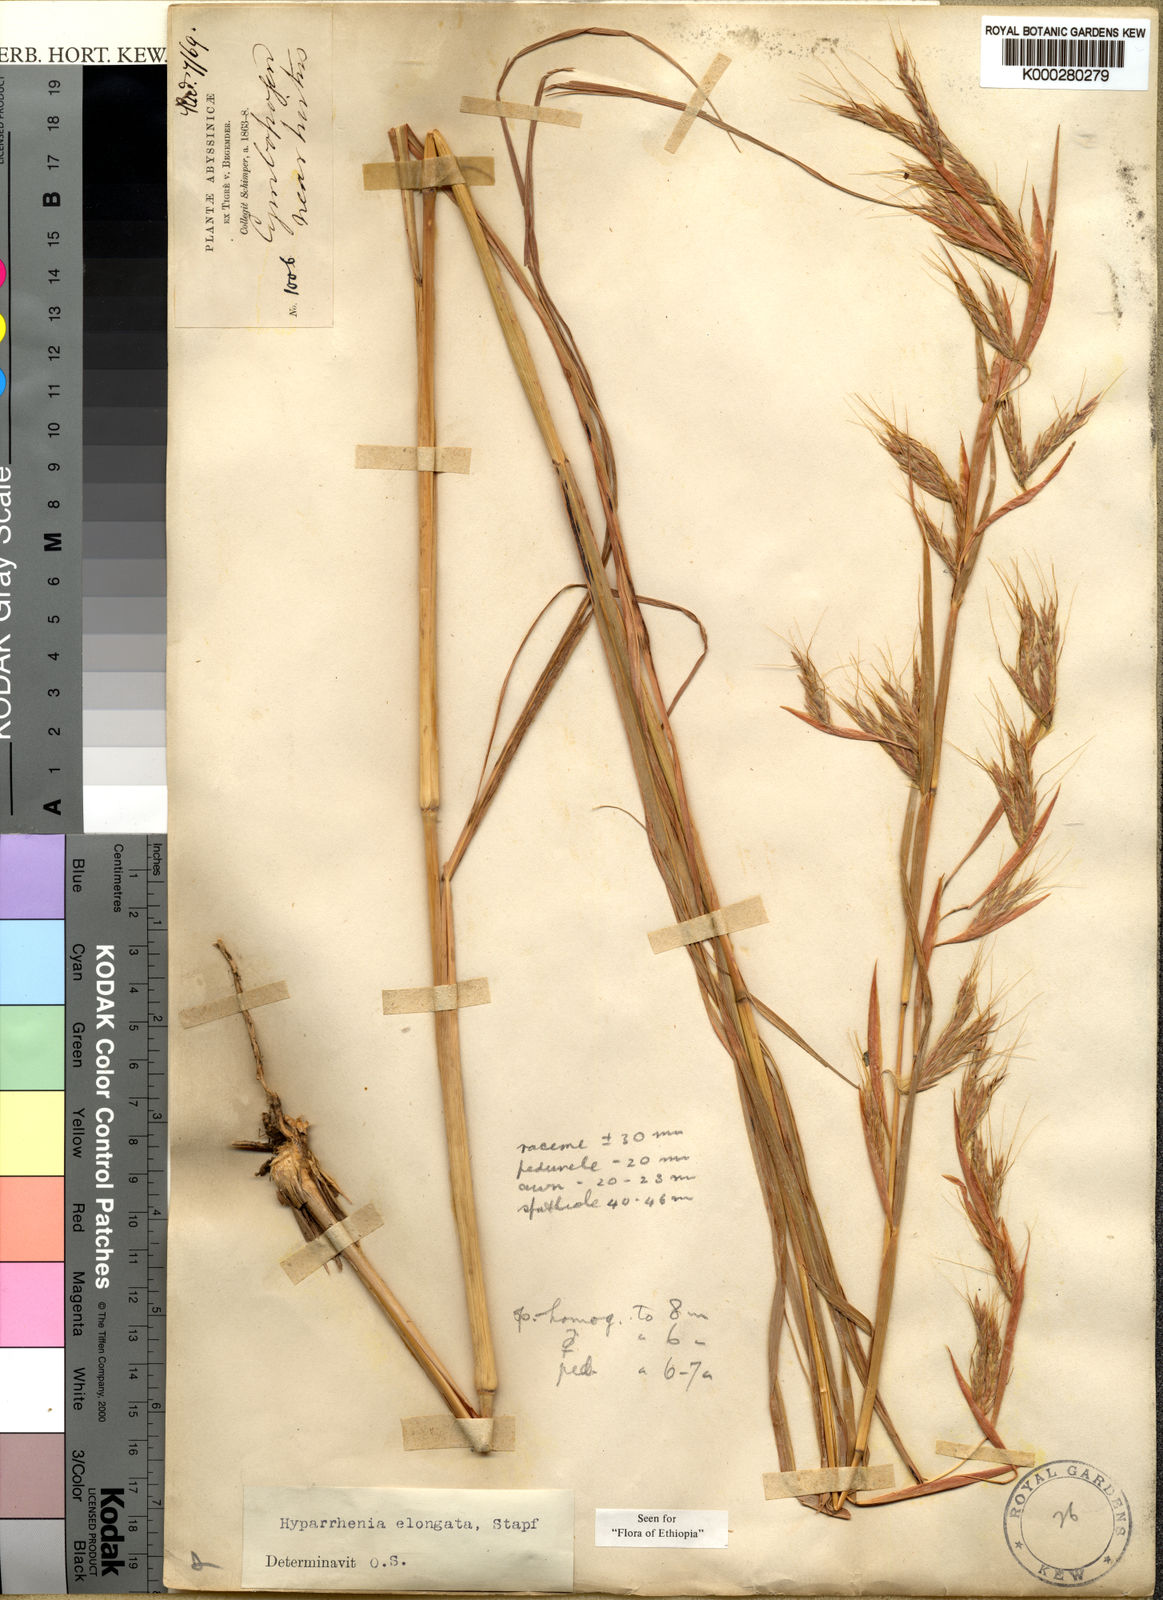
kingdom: Plantae
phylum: Tracheophyta
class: Liliopsida
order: Poales
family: Poaceae
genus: Hyparrhenia
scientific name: Hyparrhenia dregeana
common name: Silky thatching grass
